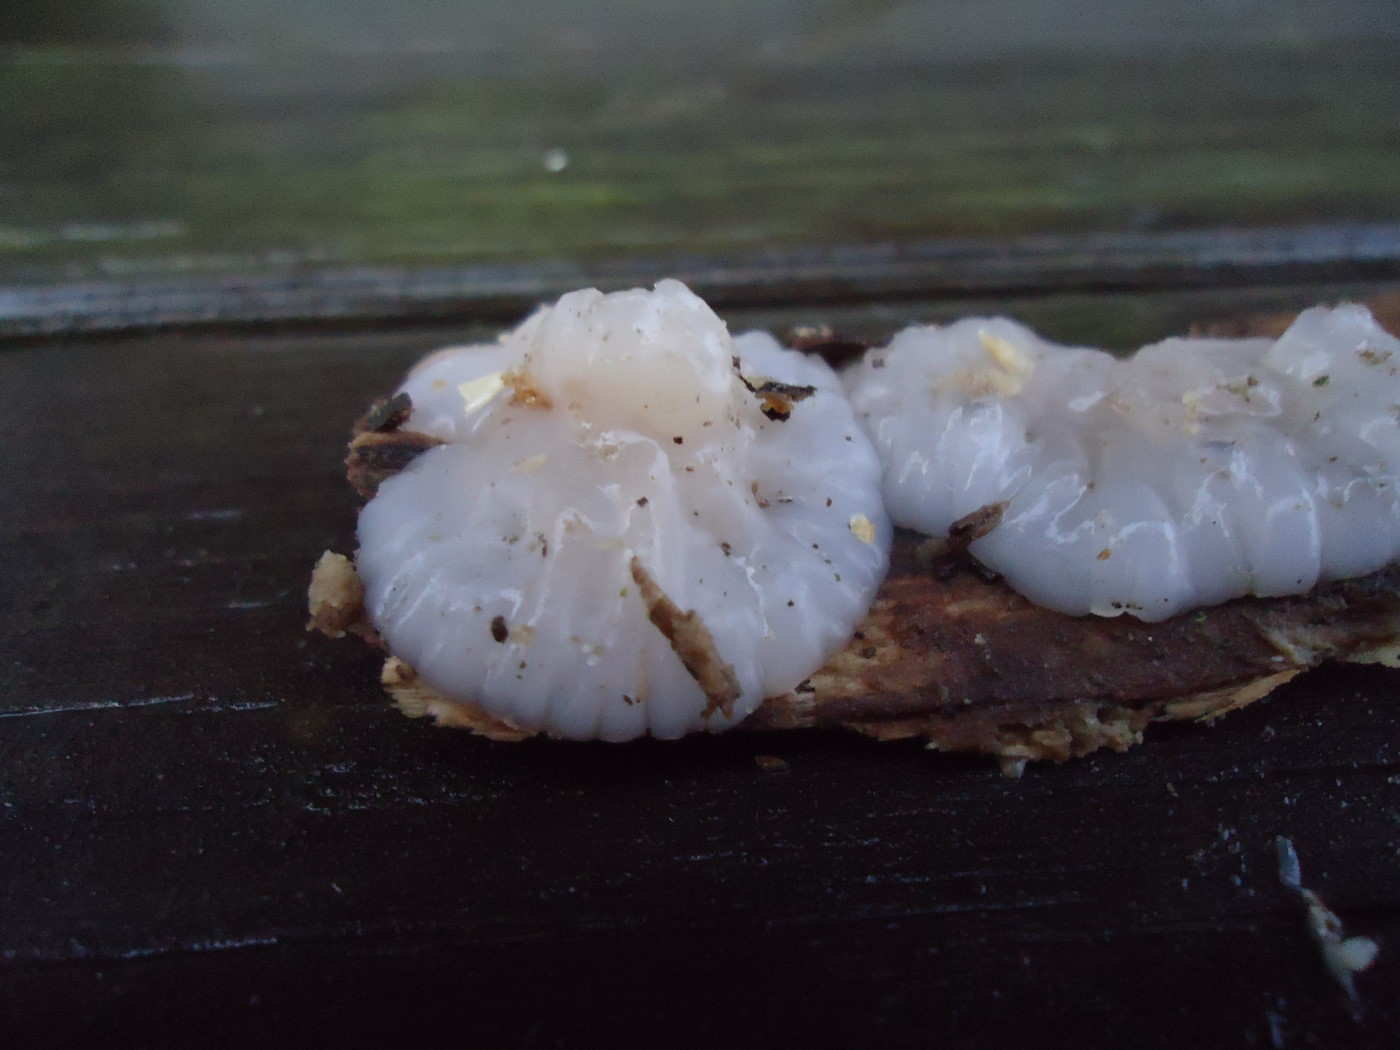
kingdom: Fungi
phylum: Basidiomycota
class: Agaricomycetes
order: Auriculariales
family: Auriculariaceae
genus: Exidia
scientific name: Exidia thuretiana
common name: hvidlig bævretop
